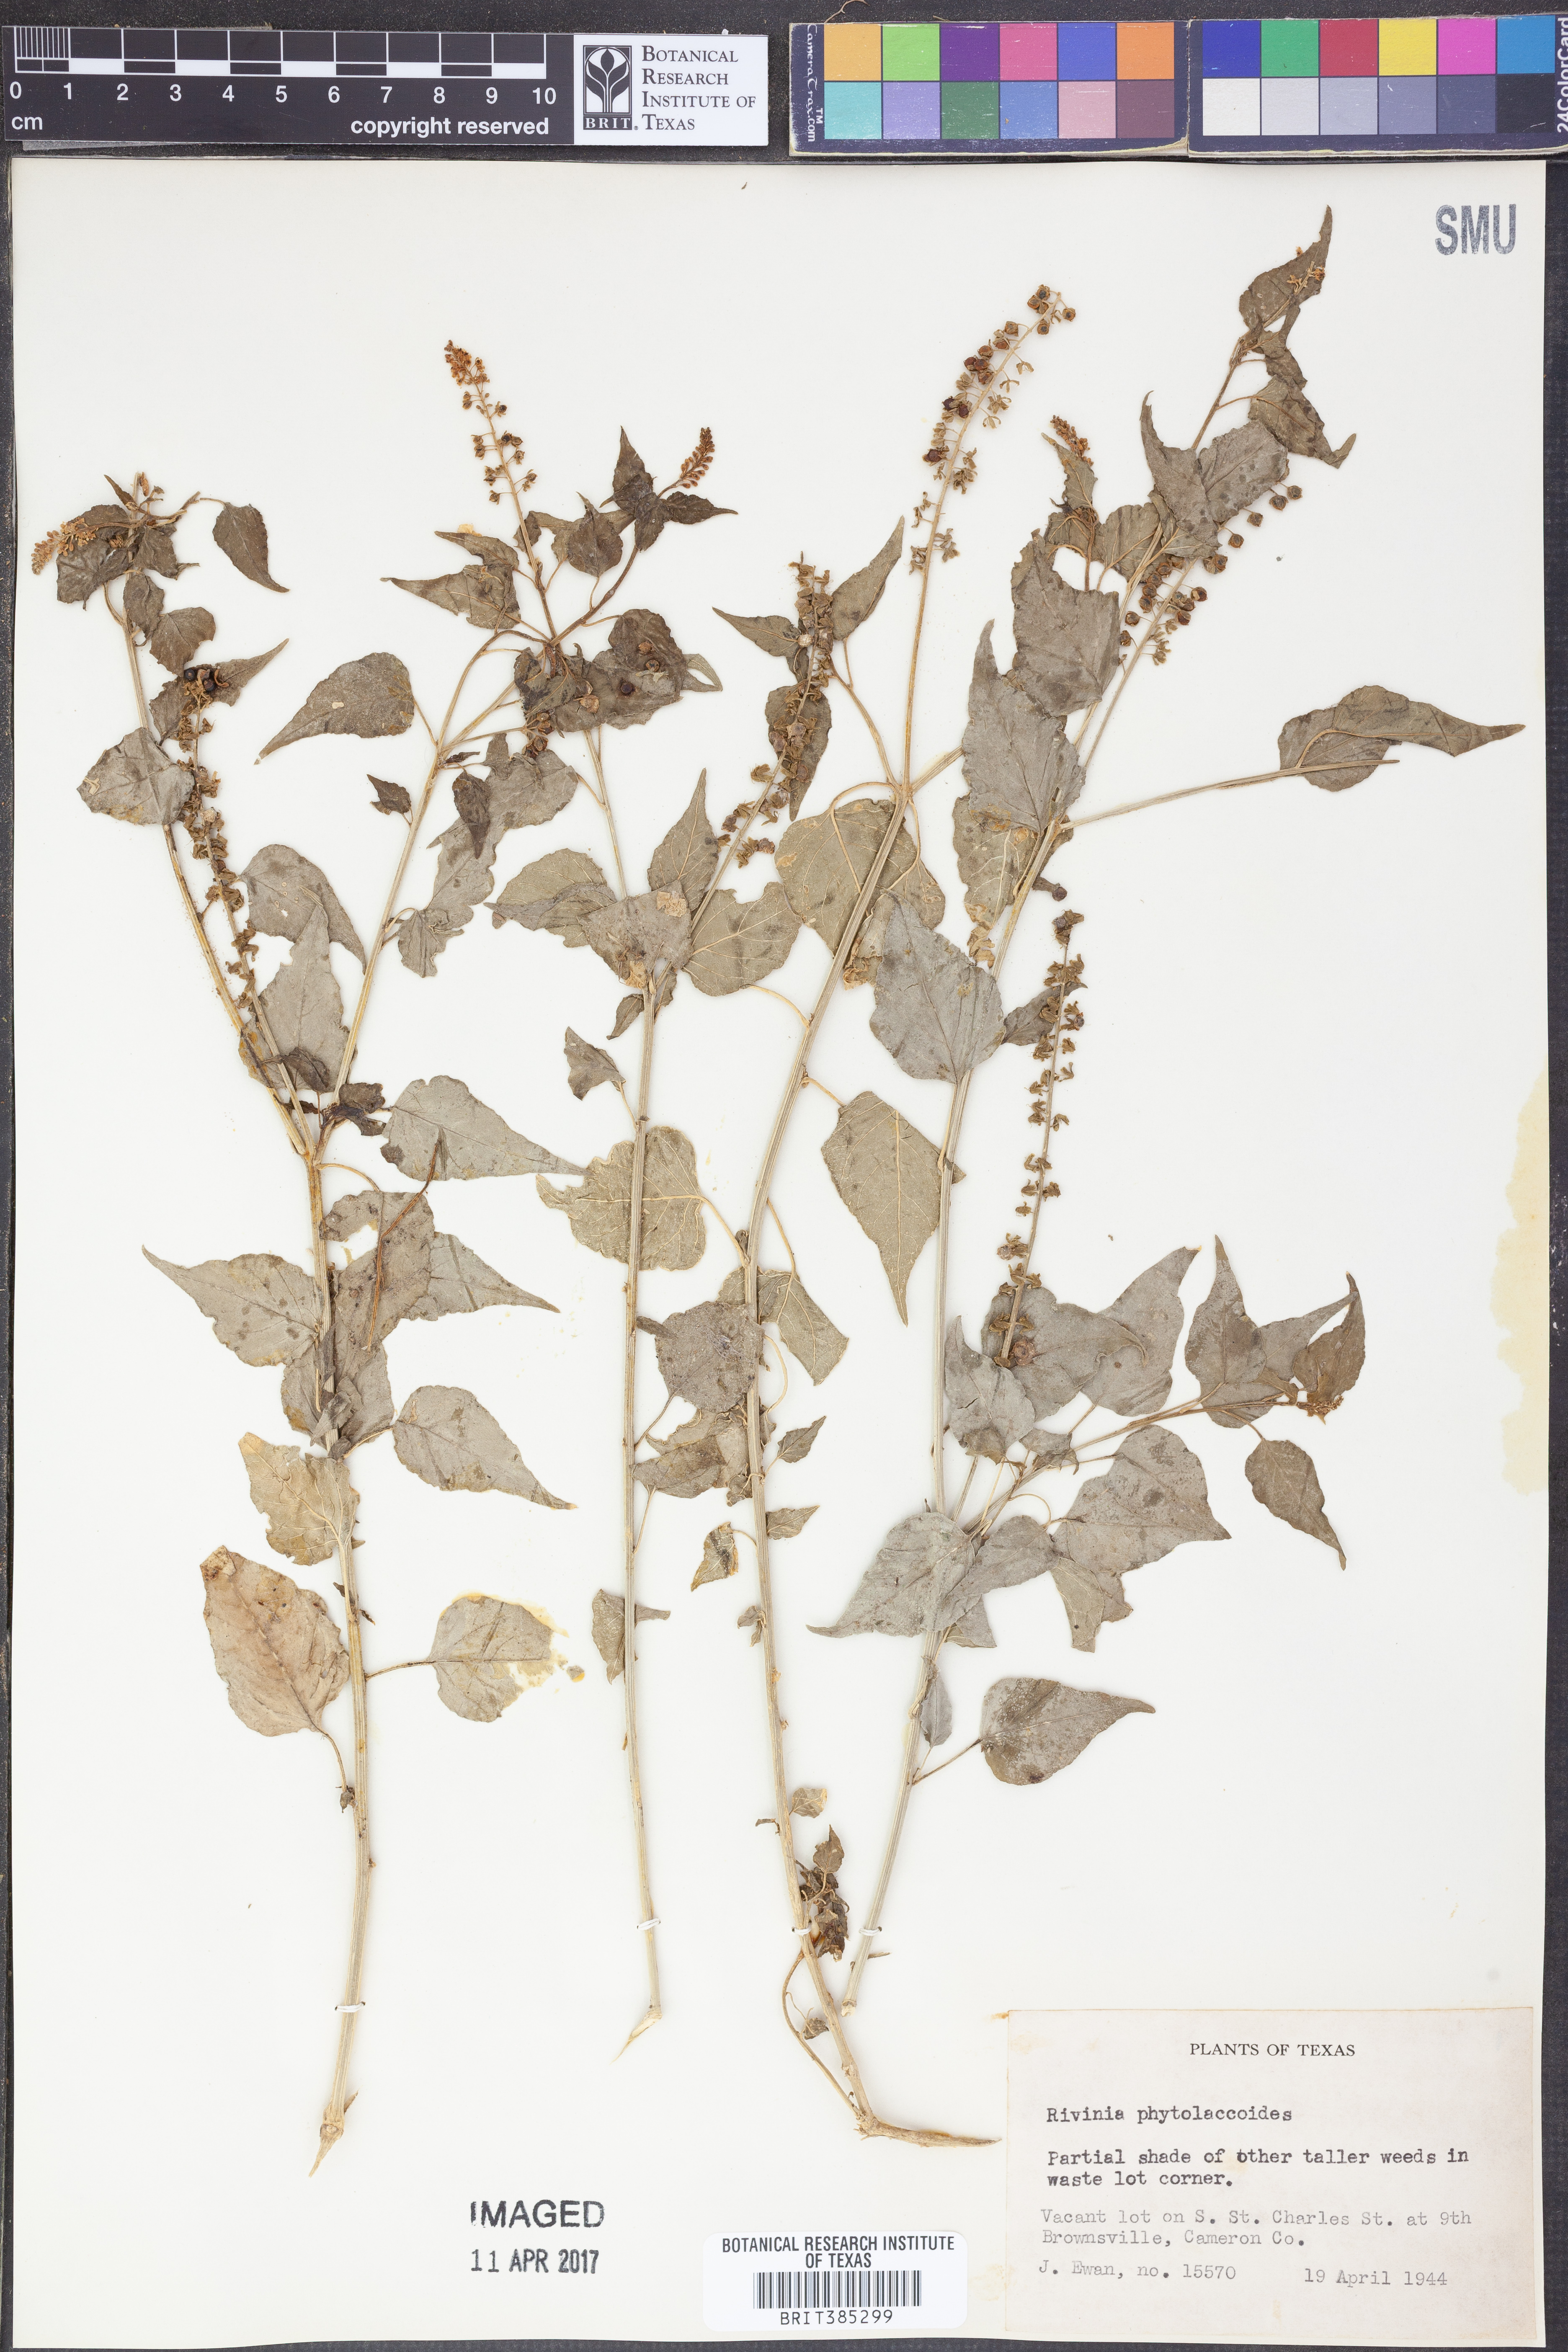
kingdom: Plantae
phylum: Tracheophyta
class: Magnoliopsida
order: Caryophyllales
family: Phytolaccaceae
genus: Rivina
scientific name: Rivina
